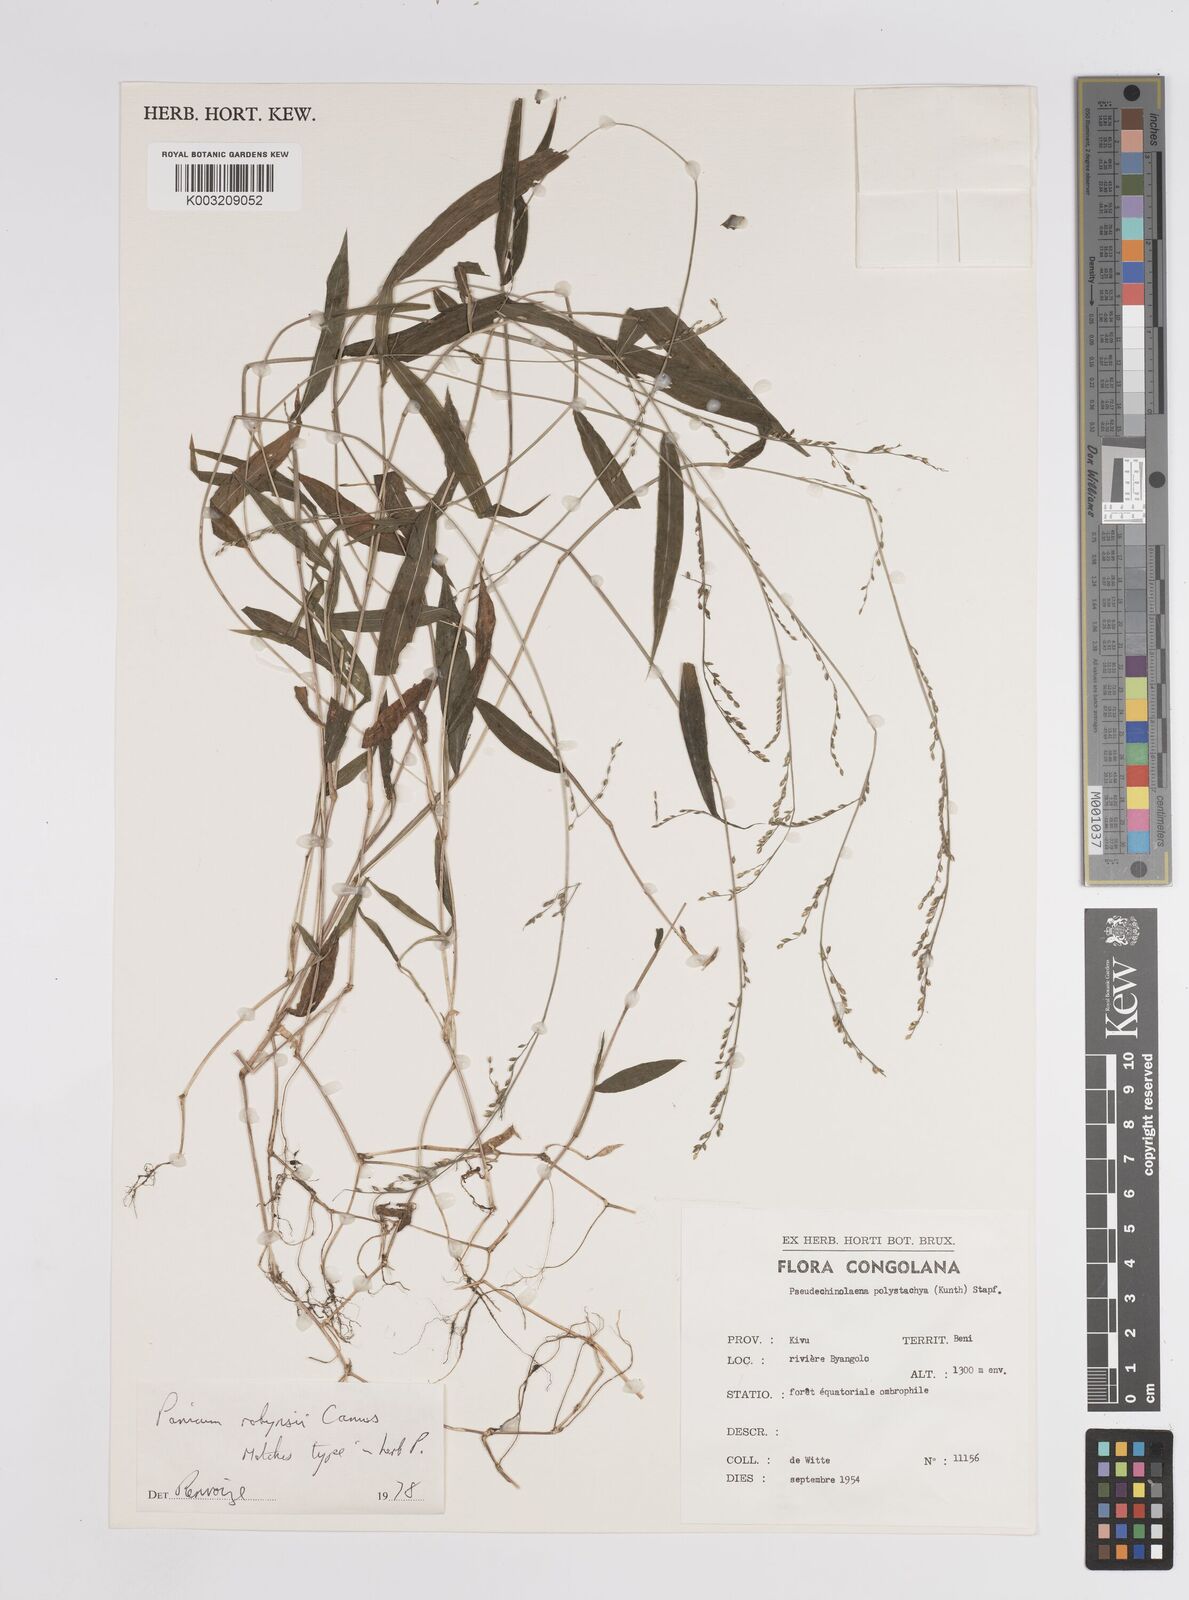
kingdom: Plantae
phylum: Tracheophyta
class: Liliopsida
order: Poales
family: Poaceae
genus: Panicum
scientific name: Panicum robynsii
